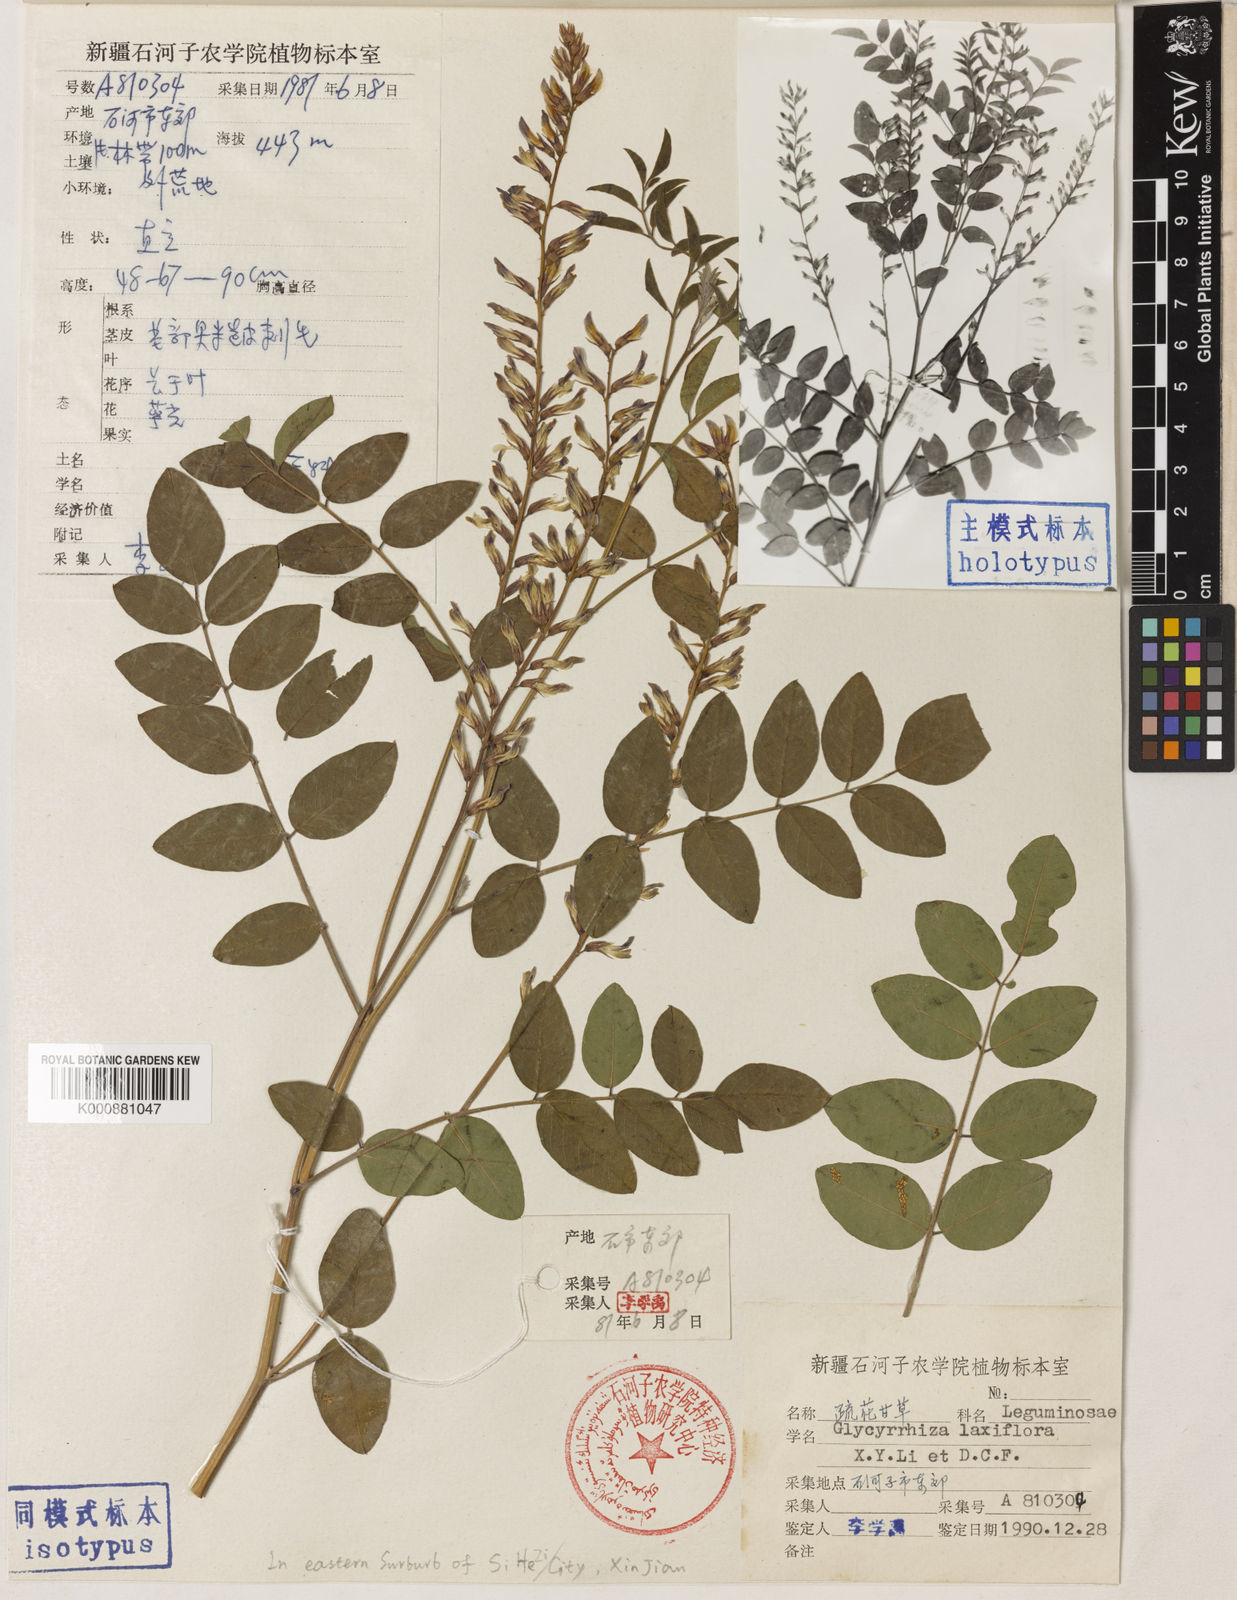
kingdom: Plantae
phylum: Tracheophyta
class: Magnoliopsida
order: Fabales
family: Fabaceae
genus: Glycyrrhiza
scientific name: Glycyrrhiza aspera
